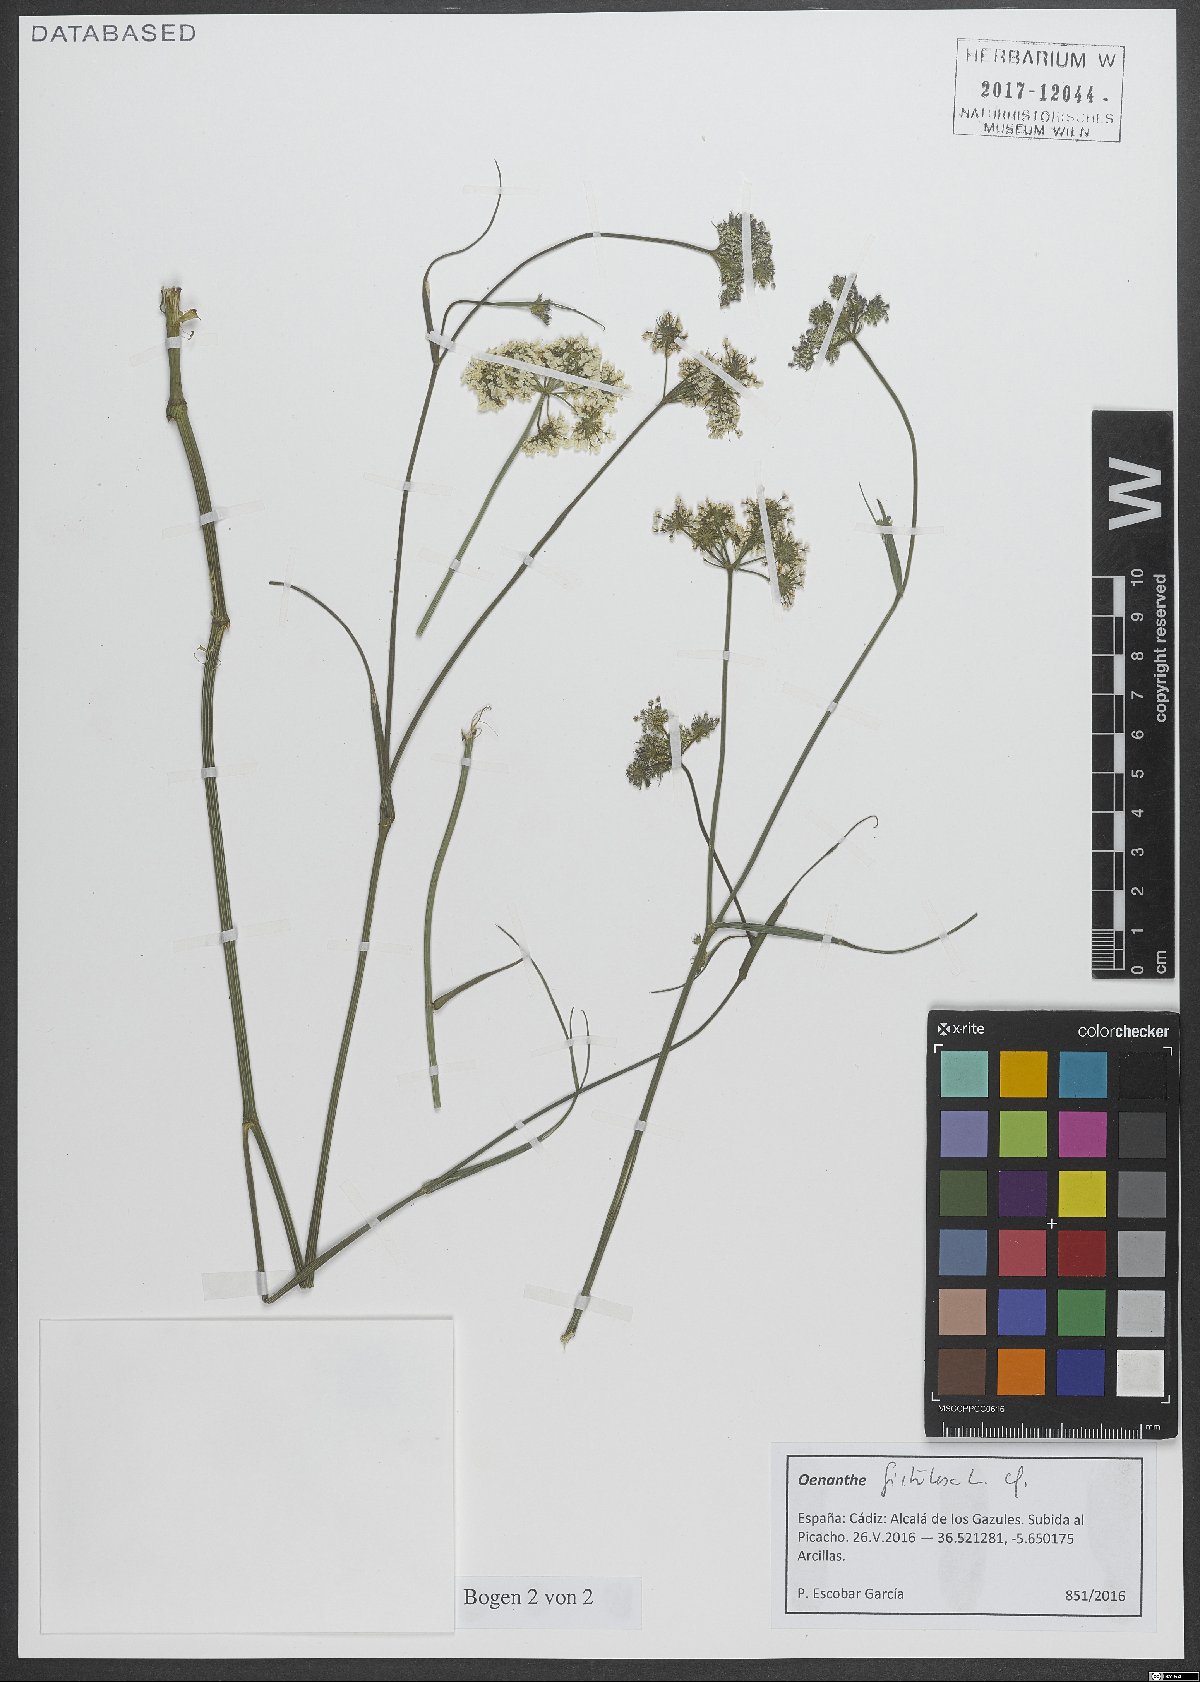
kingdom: Plantae
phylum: Tracheophyta
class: Magnoliopsida
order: Apiales
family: Apiaceae
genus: Oenanthe
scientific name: Oenanthe fistulosa
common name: Tubular water-dropwort
